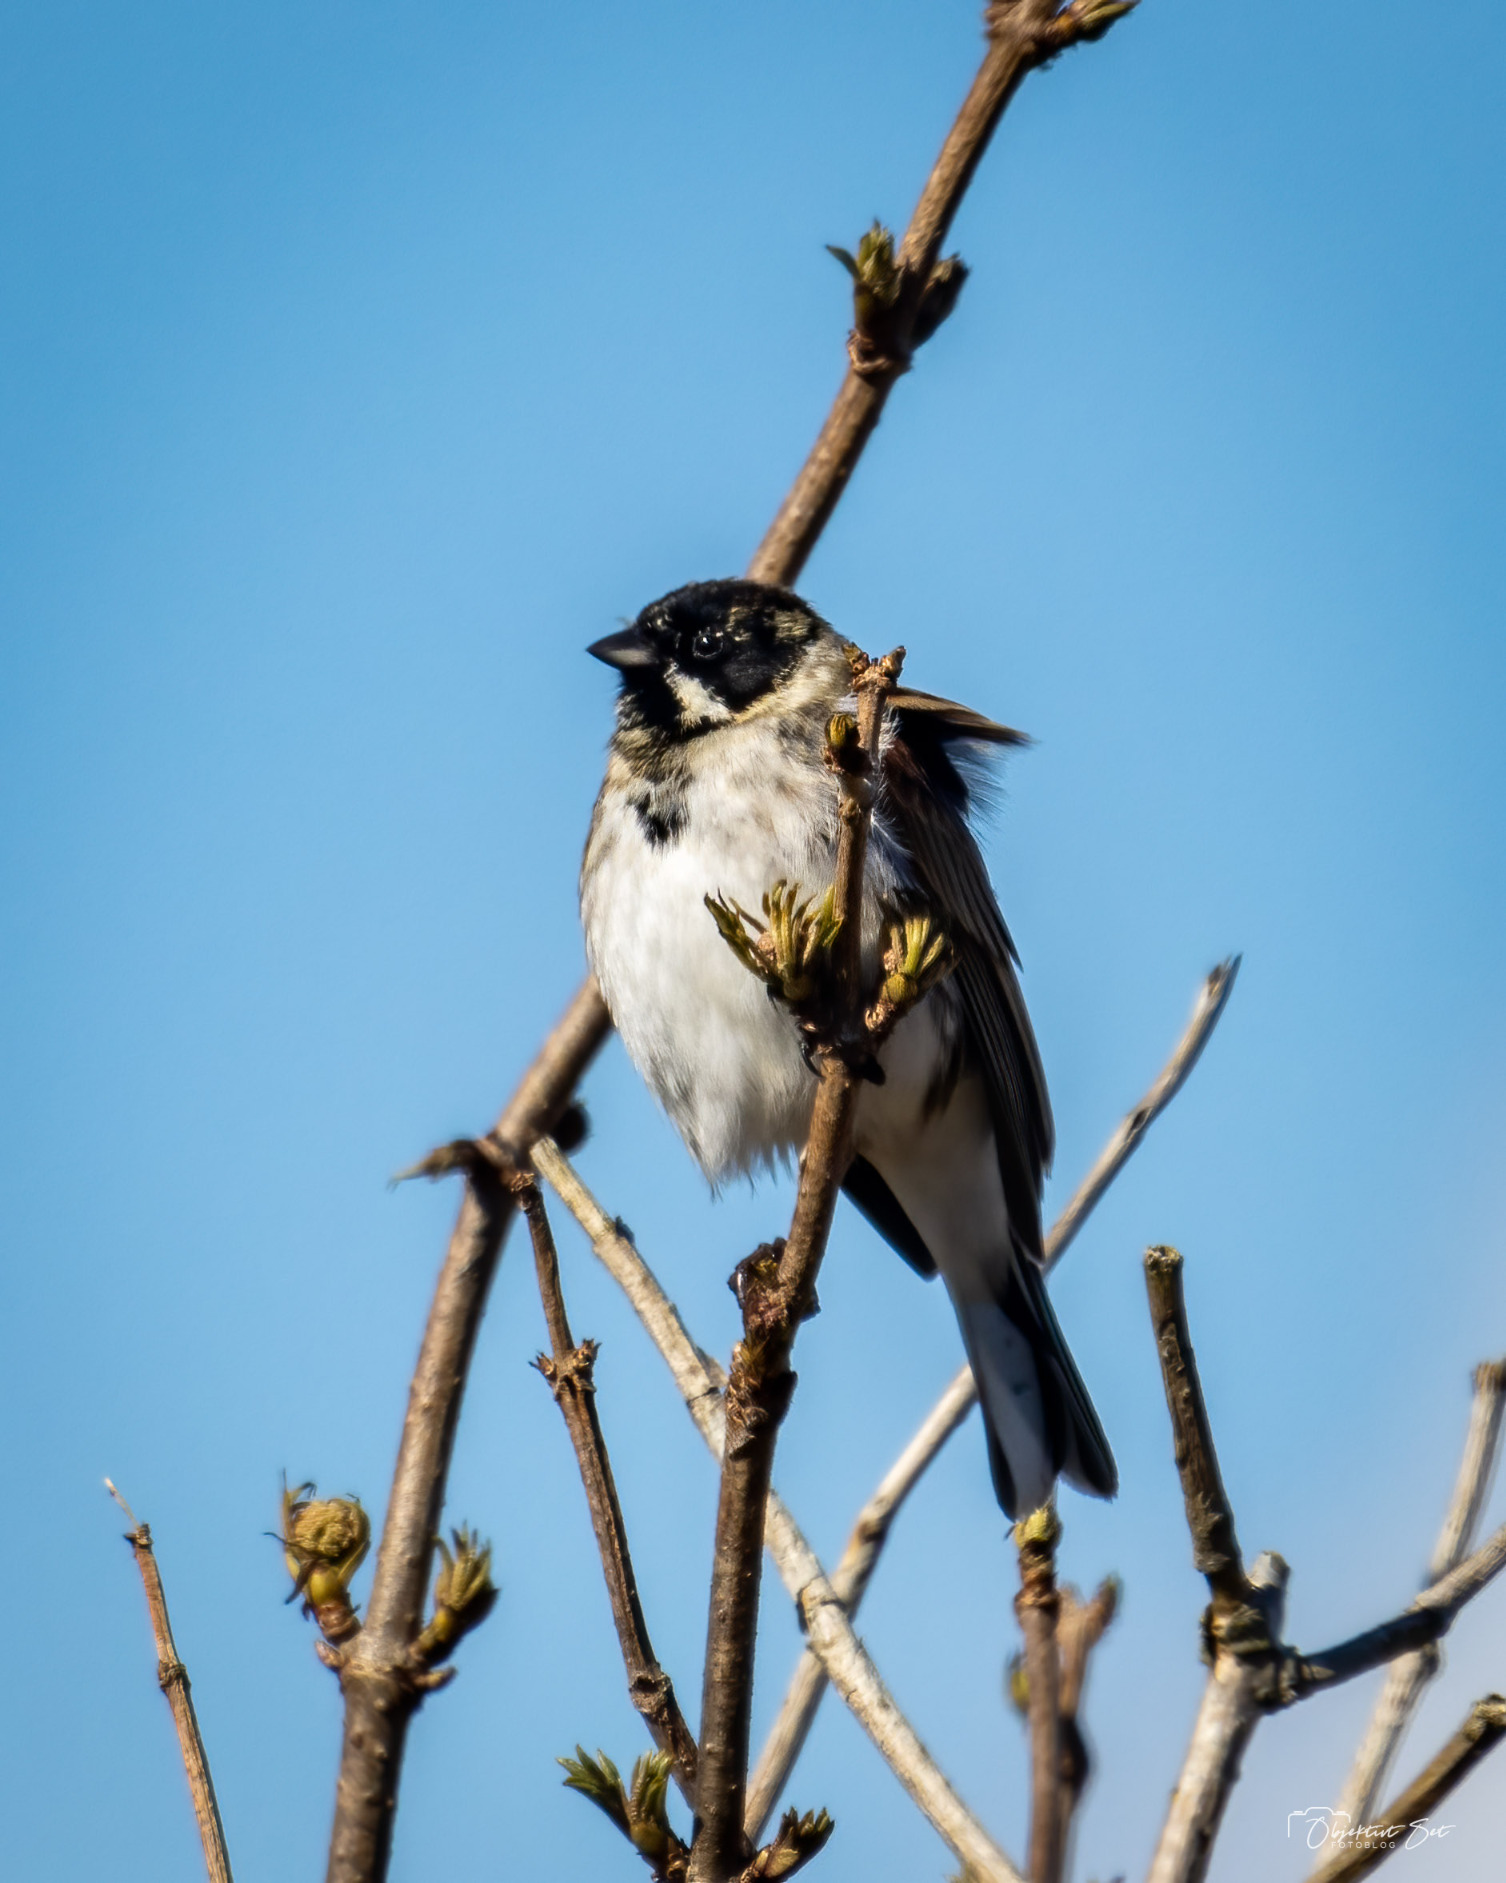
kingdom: Animalia
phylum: Chordata
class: Aves
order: Passeriformes
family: Emberizidae
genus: Emberiza
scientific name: Emberiza schoeniclus
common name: Rørspurv
